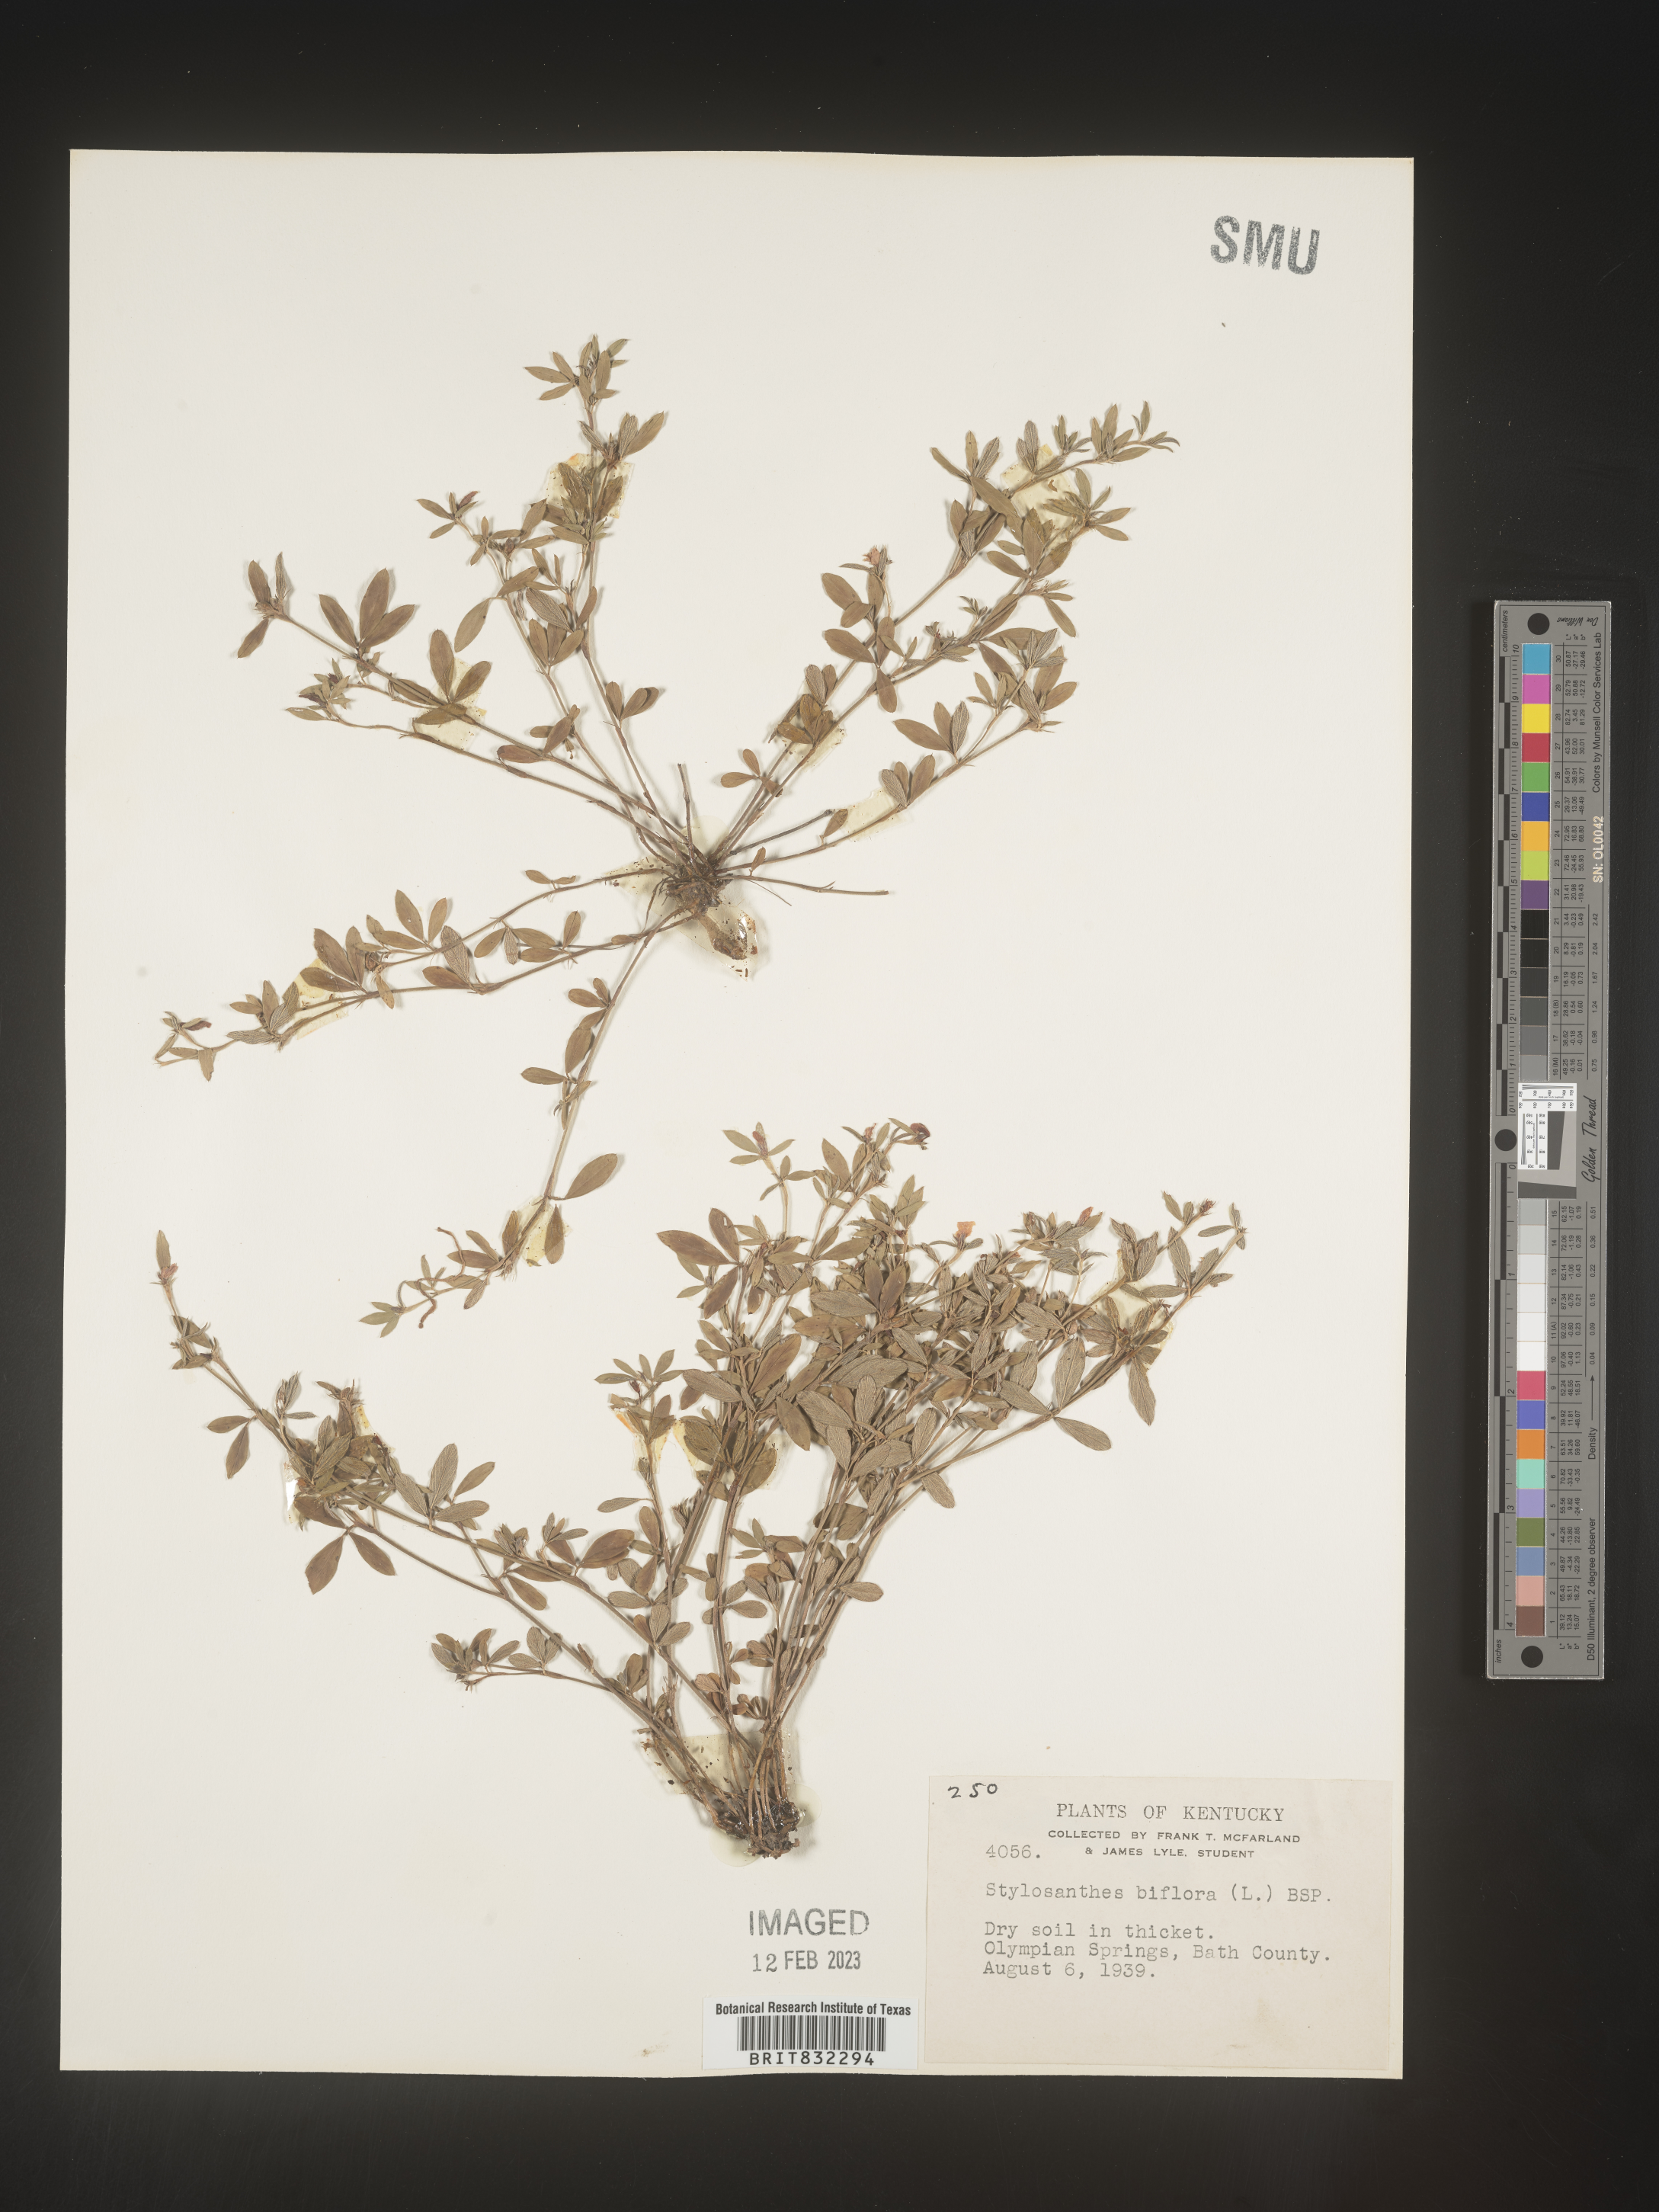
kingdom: Plantae
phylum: Tracheophyta
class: Magnoliopsida
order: Fabales
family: Fabaceae
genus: Stylosanthes
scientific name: Stylosanthes biflora
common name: Two-flower pencil-flower
